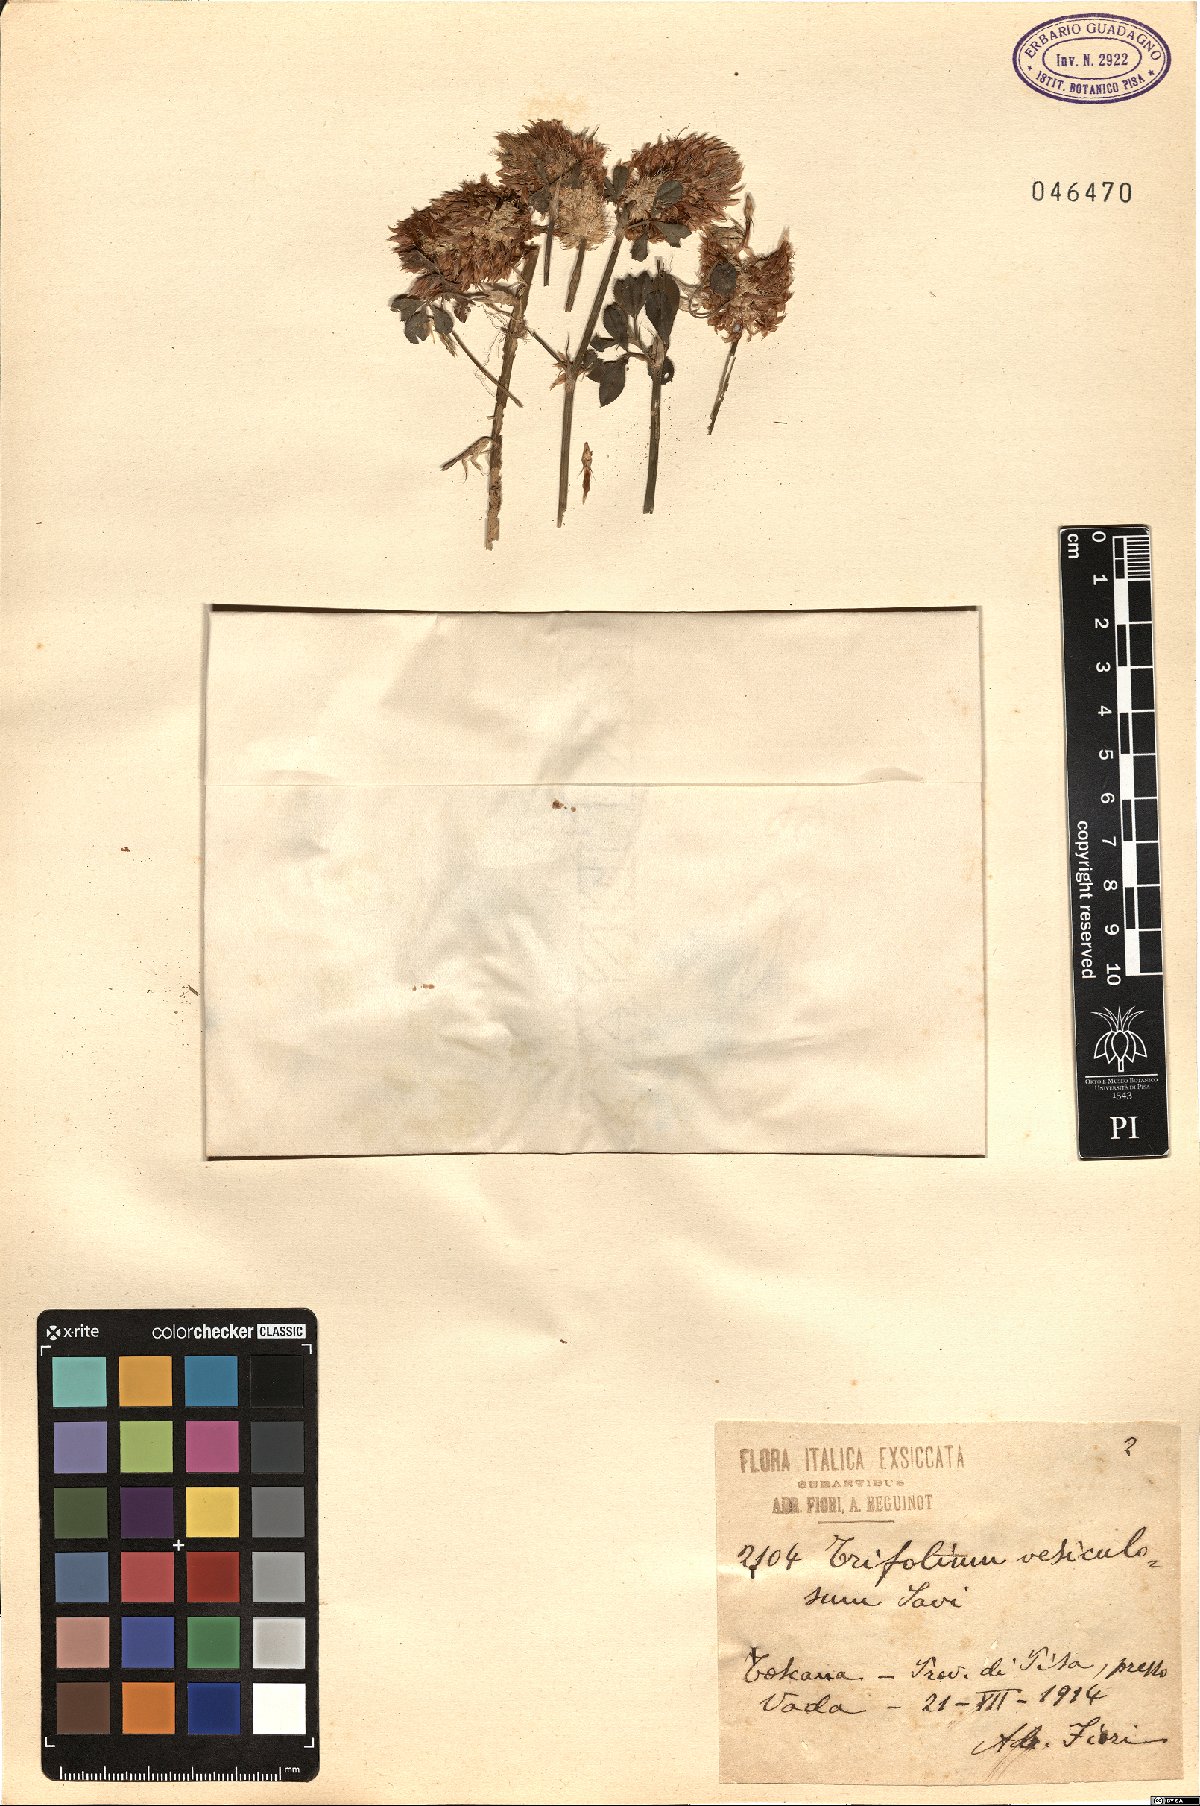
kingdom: Plantae
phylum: Tracheophyta
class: Magnoliopsida
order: Fabales
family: Fabaceae
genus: Trifolium
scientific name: Trifolium vesiculosum
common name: Arrowleaf clover
